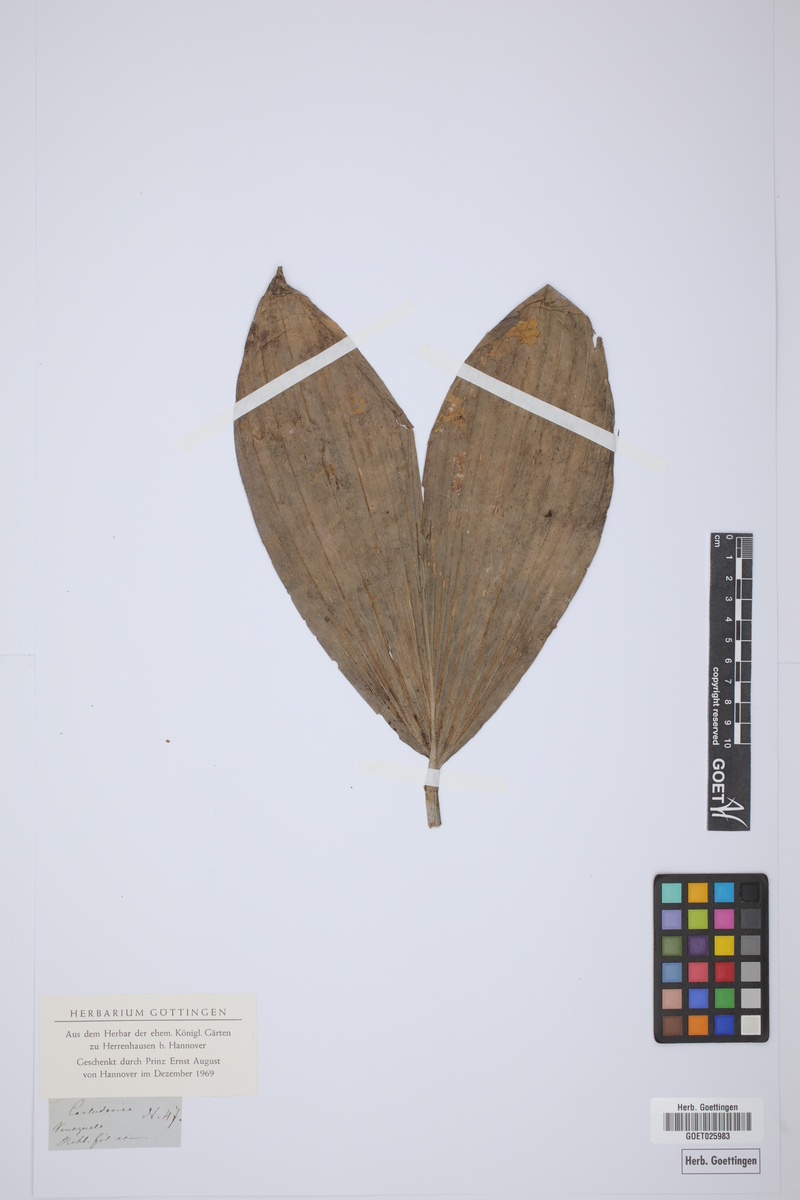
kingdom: Plantae
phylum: Tracheophyta
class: Liliopsida
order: Pandanales
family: Cyclanthaceae
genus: Carludovica
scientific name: Carludovica
